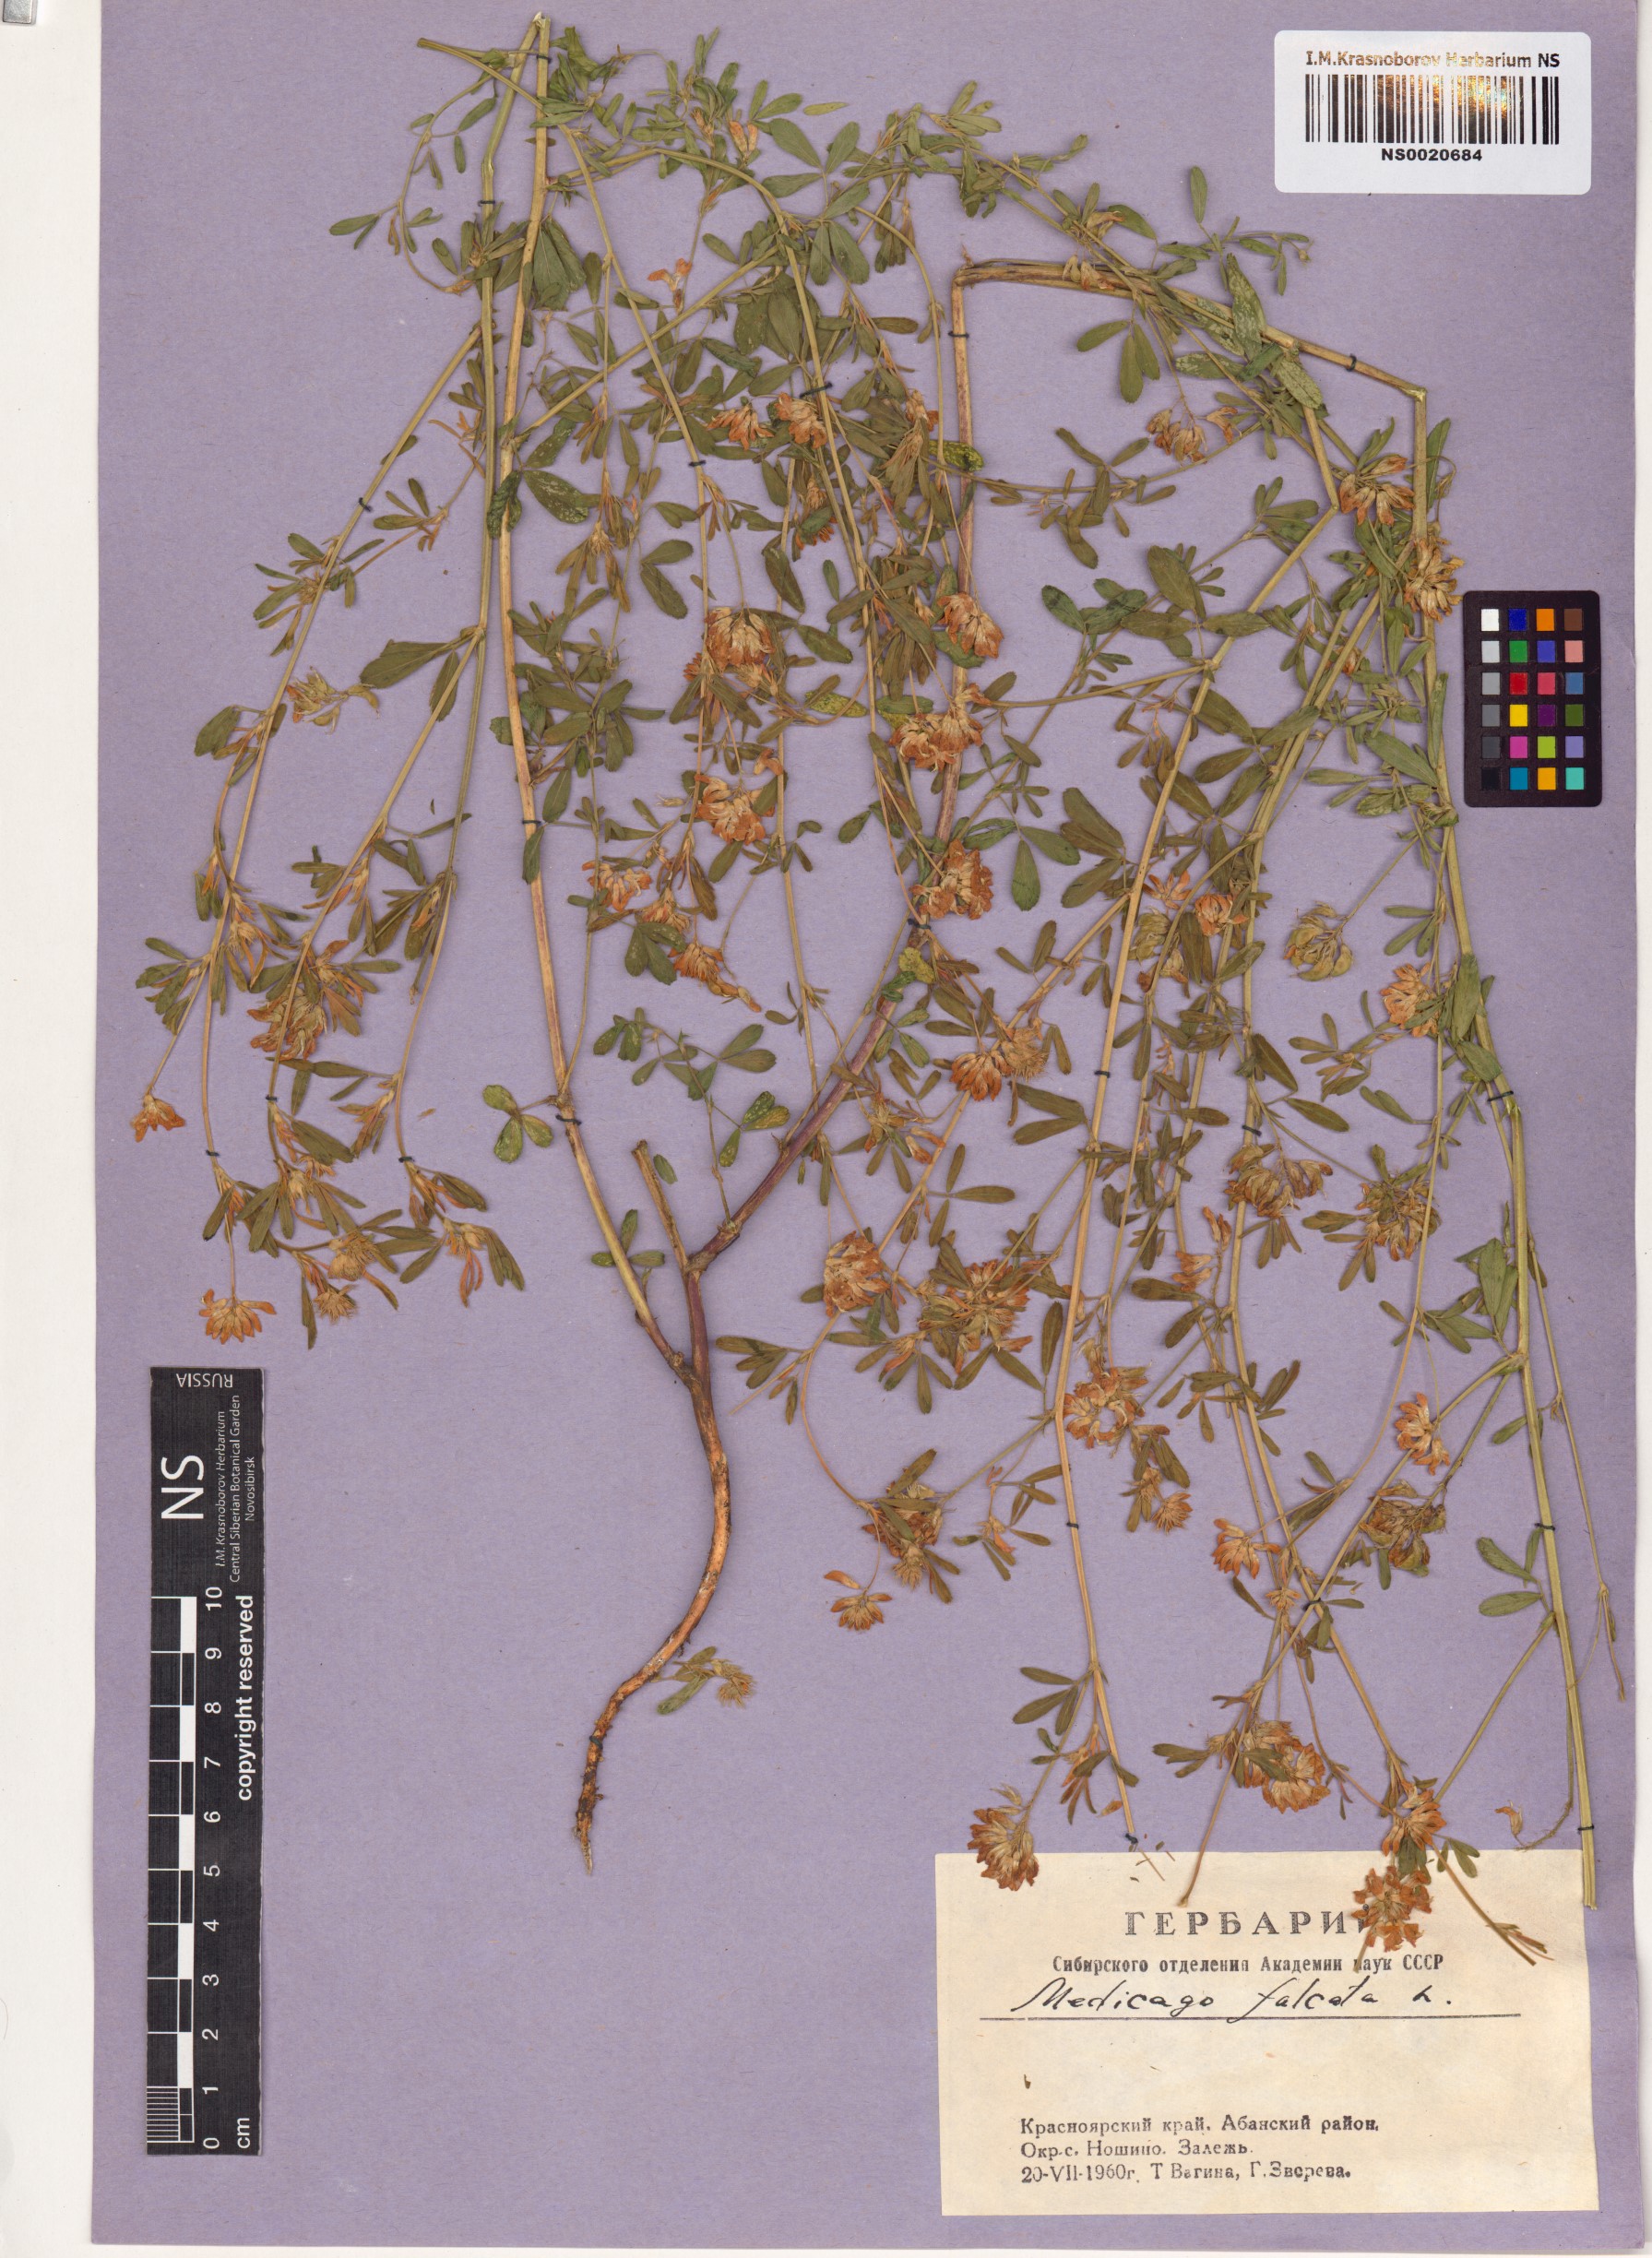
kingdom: Plantae
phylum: Tracheophyta
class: Magnoliopsida
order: Fabales
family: Fabaceae
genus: Medicago
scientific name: Medicago falcata
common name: Sickle medick
